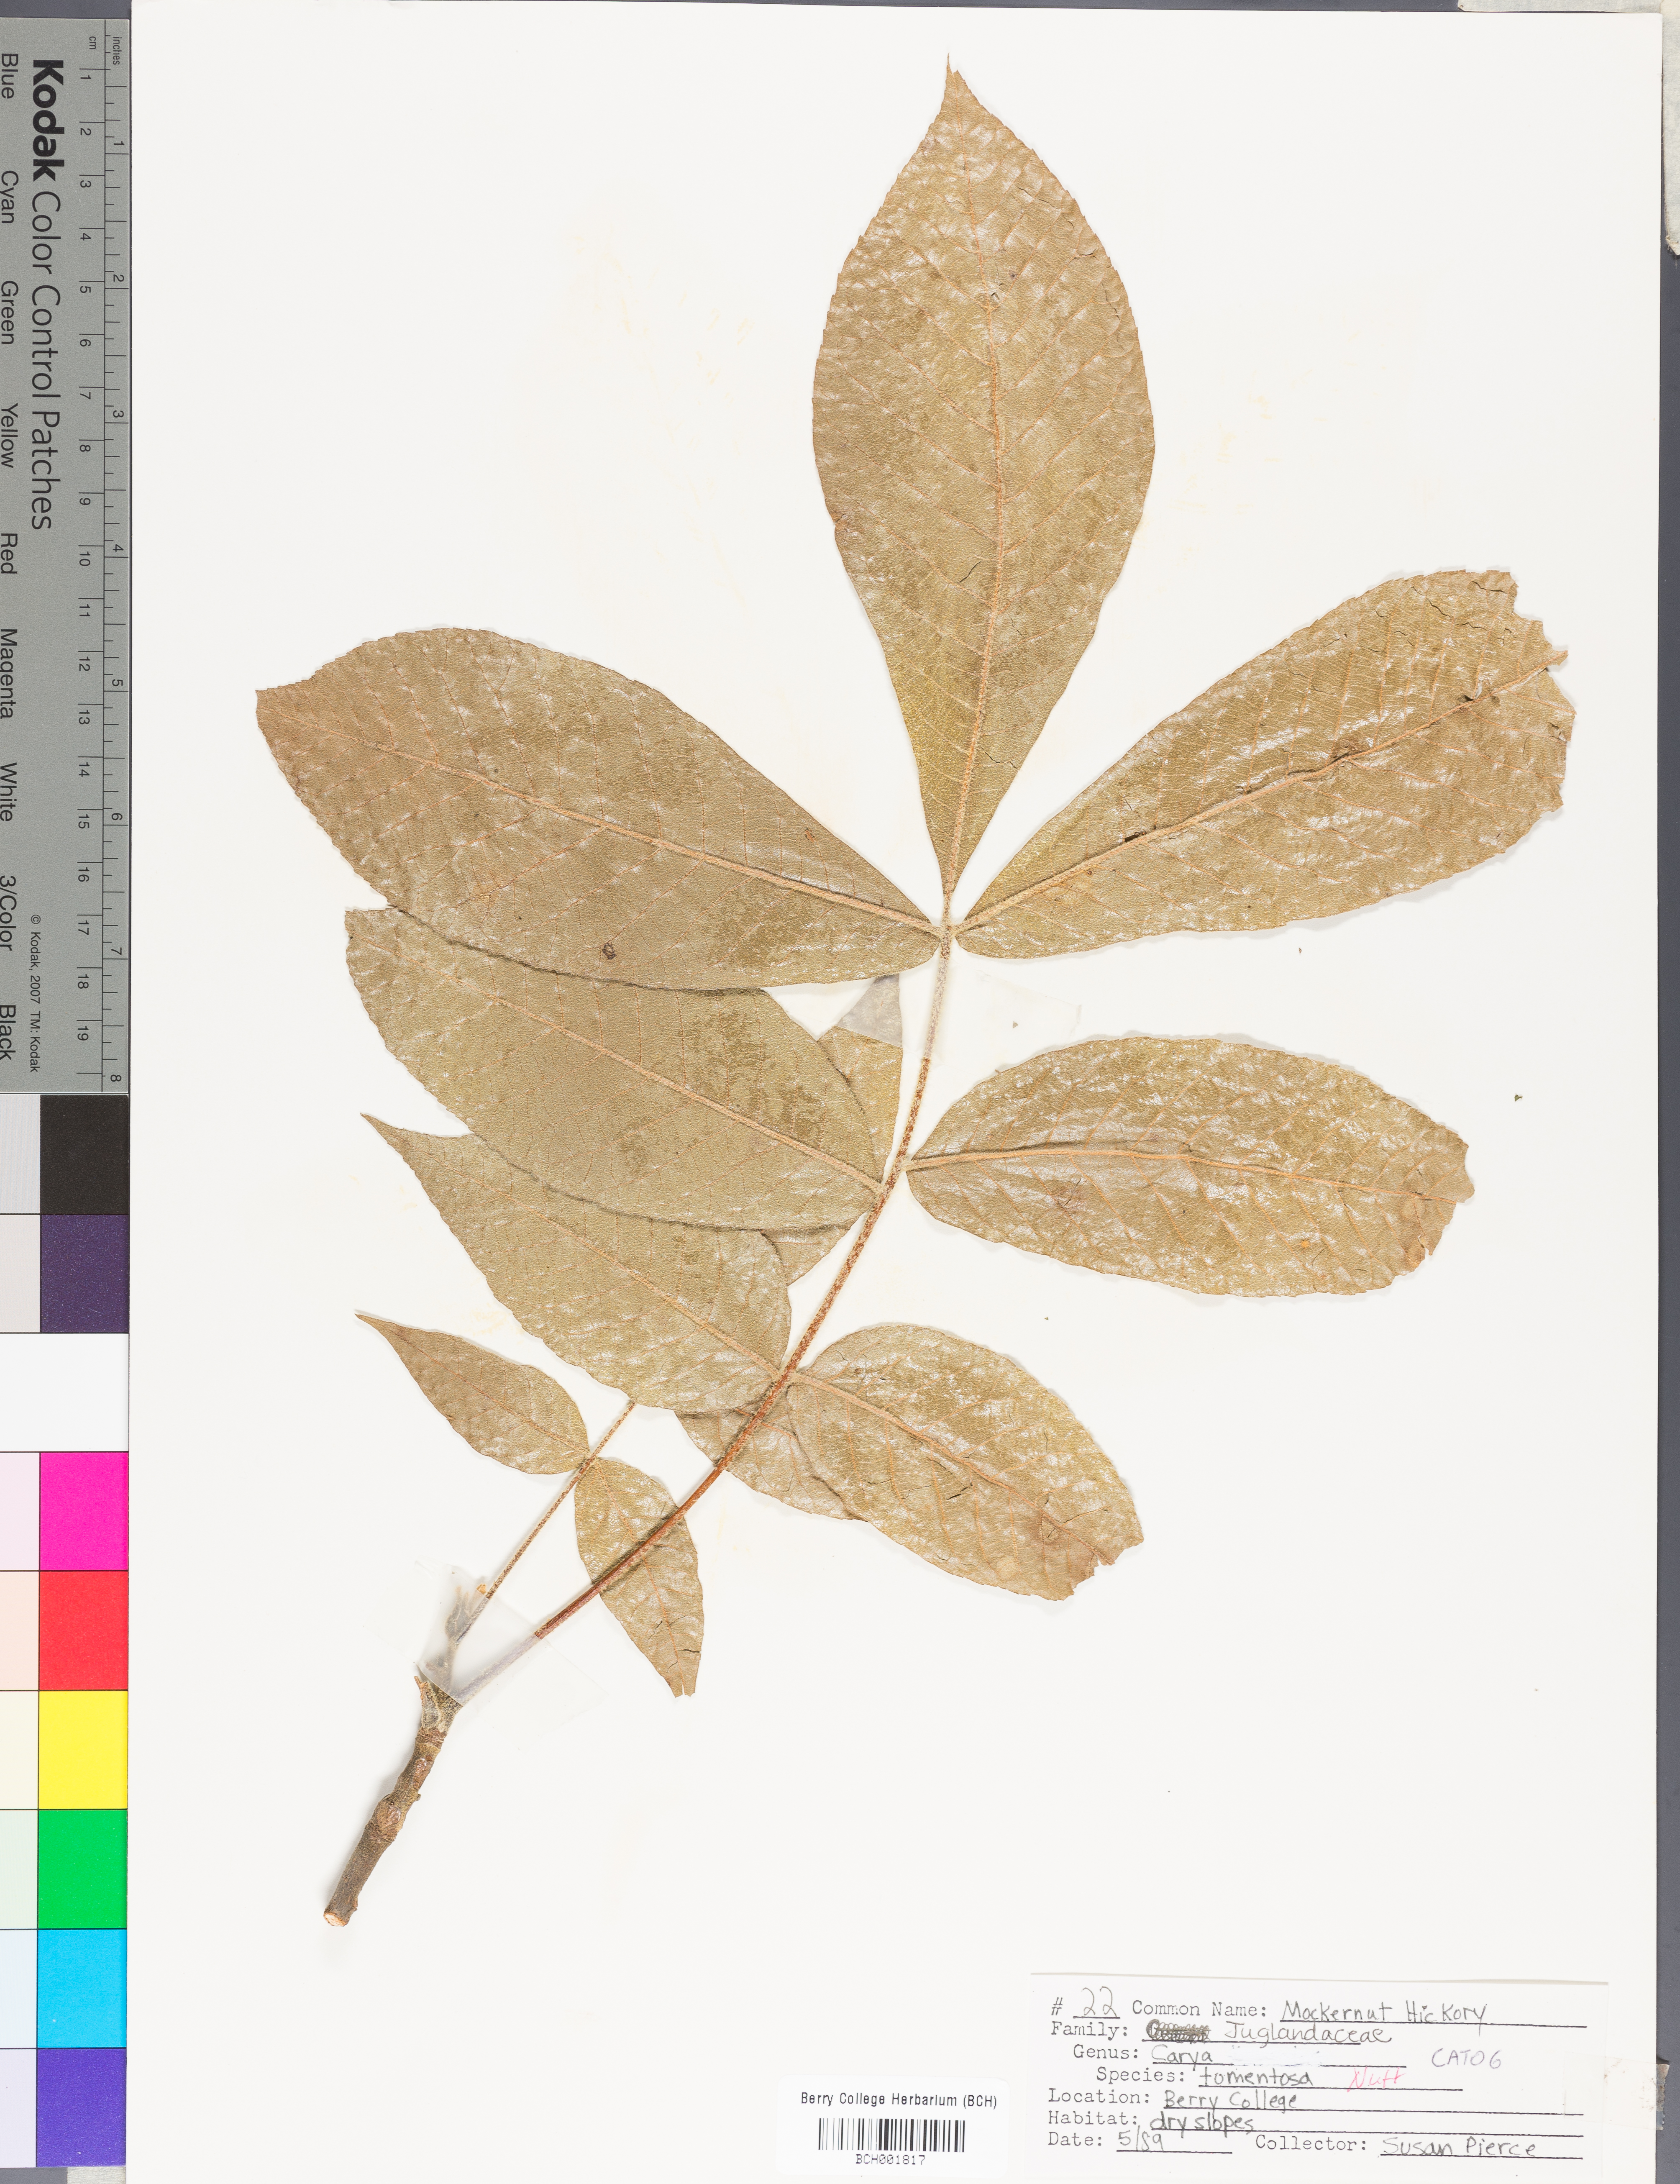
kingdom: Plantae
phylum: Tracheophyta
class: Magnoliopsida
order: Fagales
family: Juglandaceae
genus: Carya
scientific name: Carya alba
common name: Mockernut hickory
